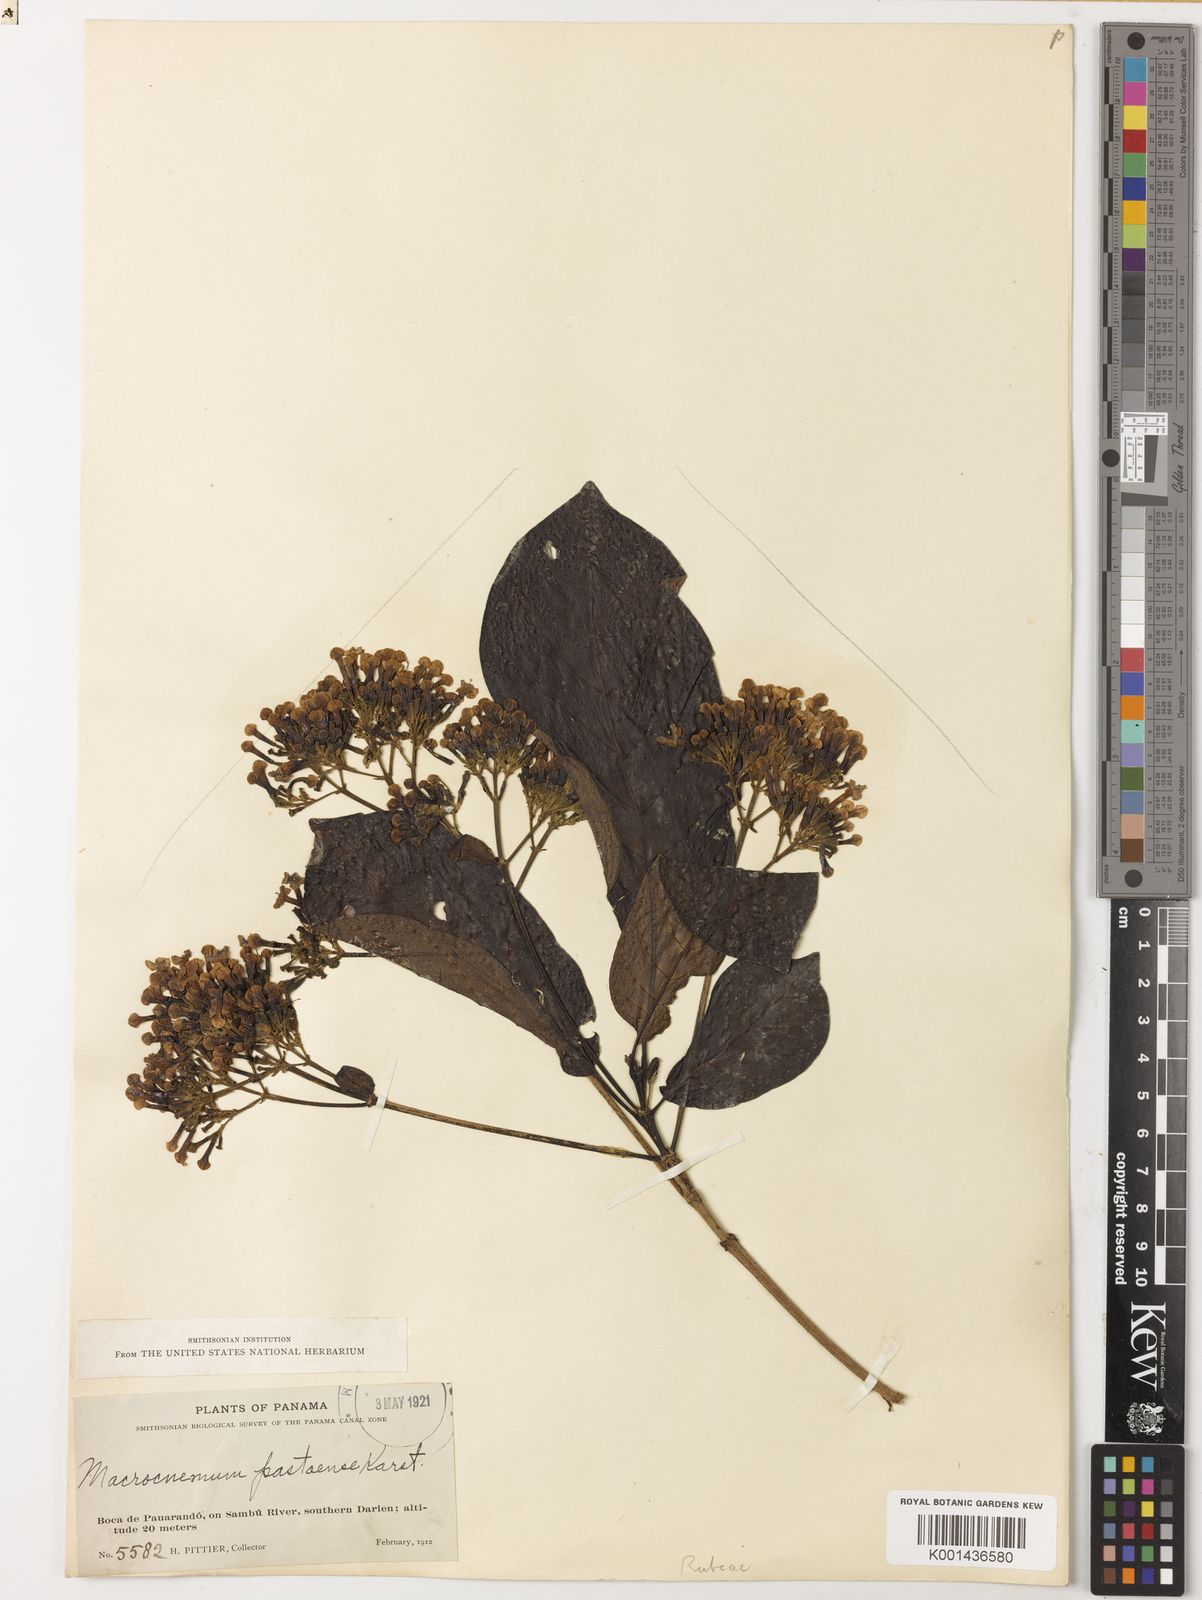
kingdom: Plantae
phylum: Tracheophyta
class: Magnoliopsida
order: Gentianales
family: Rubiaceae
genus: Macrocnemum
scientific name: Macrocnemum roseum
